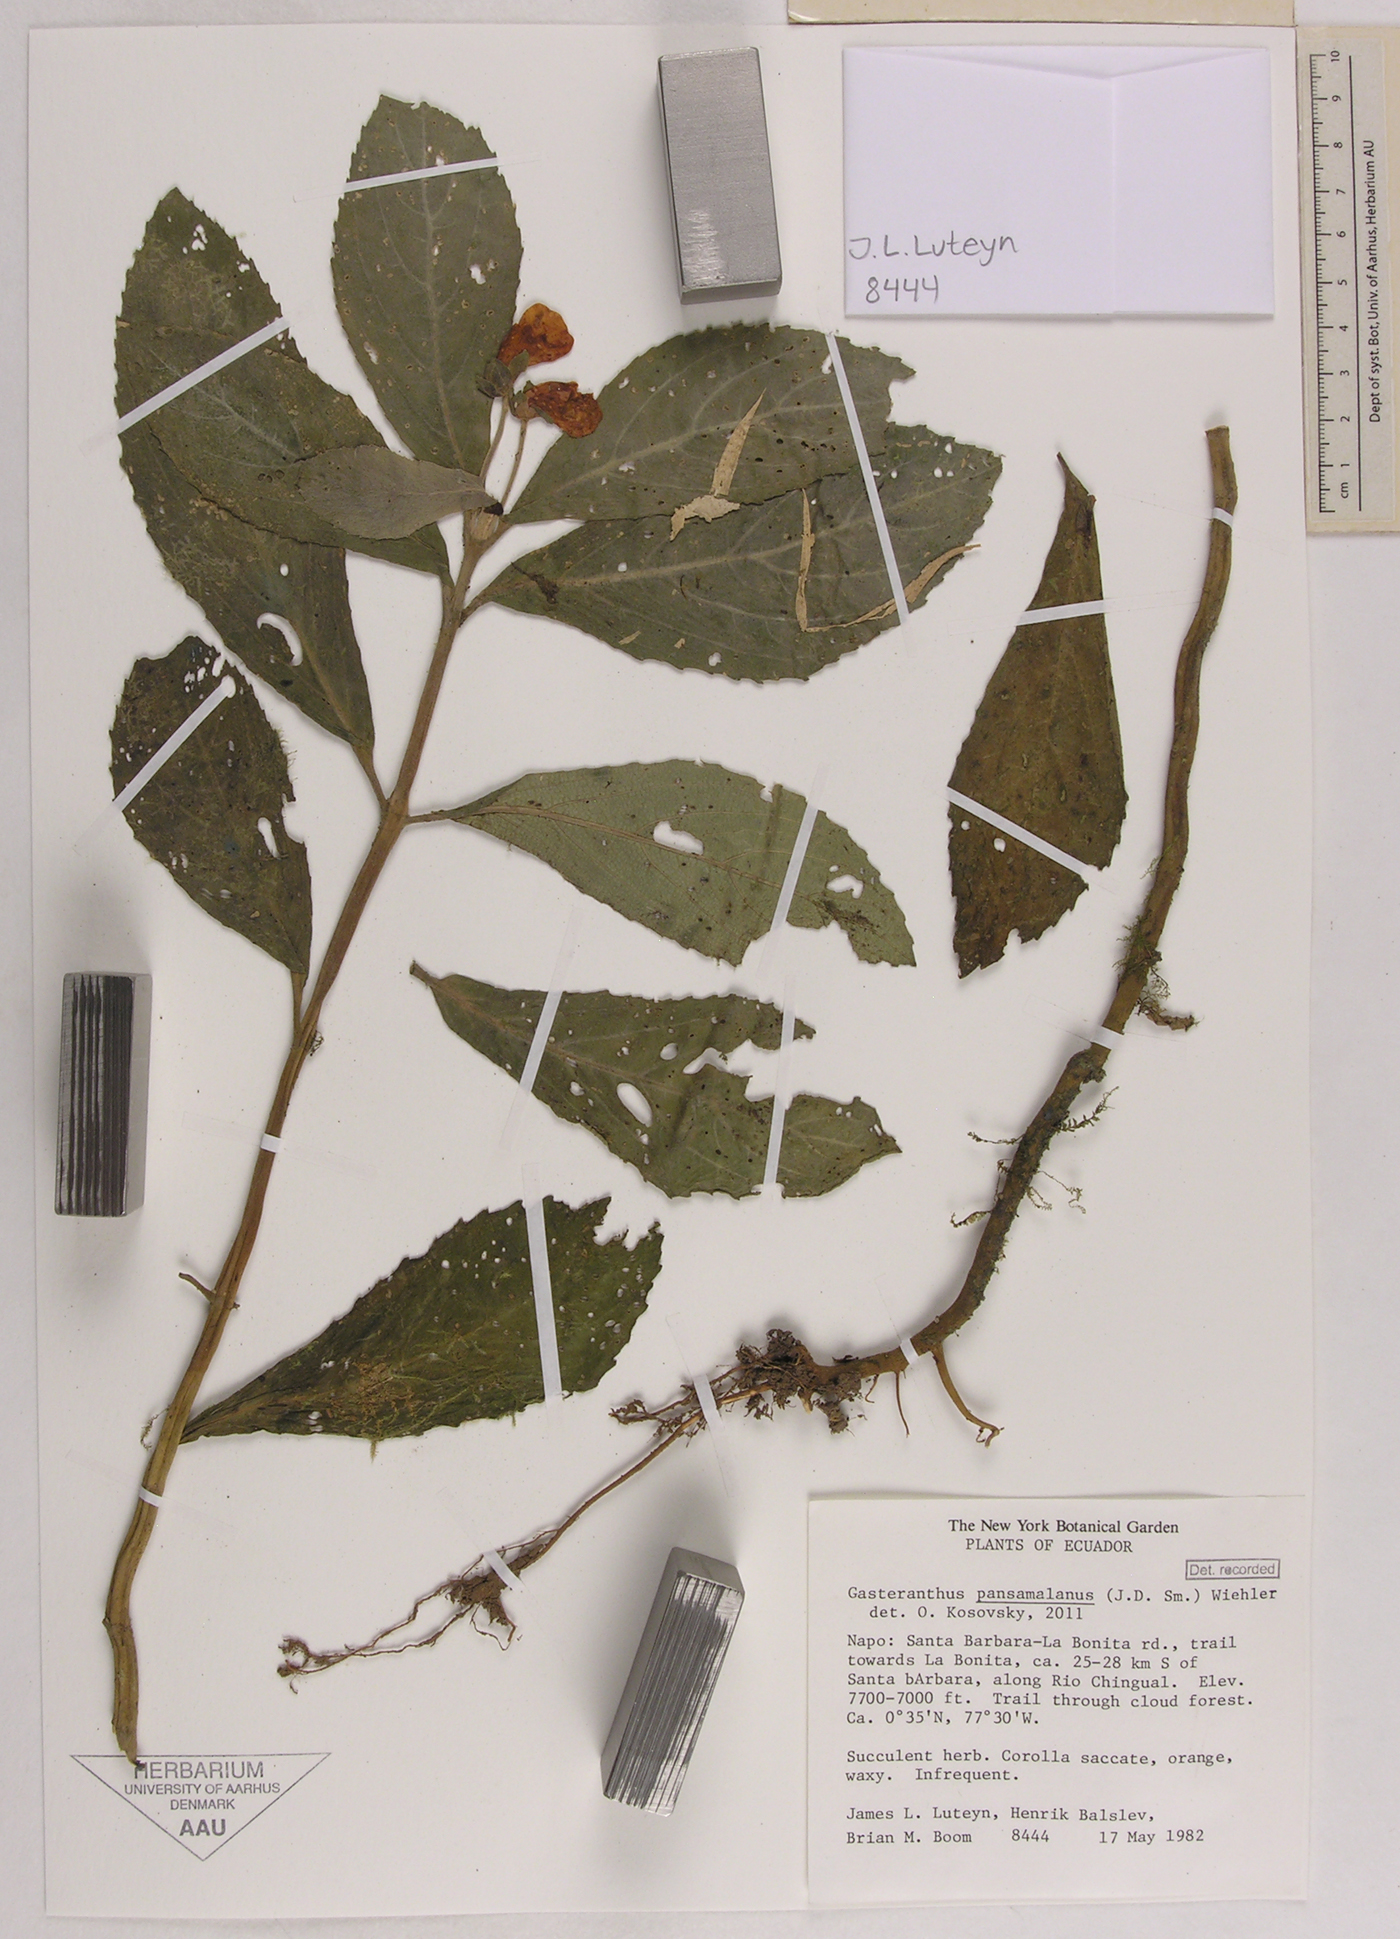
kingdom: Plantae
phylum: Tracheophyta
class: Magnoliopsida
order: Lamiales
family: Gesneriaceae
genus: Gasteranthus
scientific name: Gasteranthus pansamalanus
